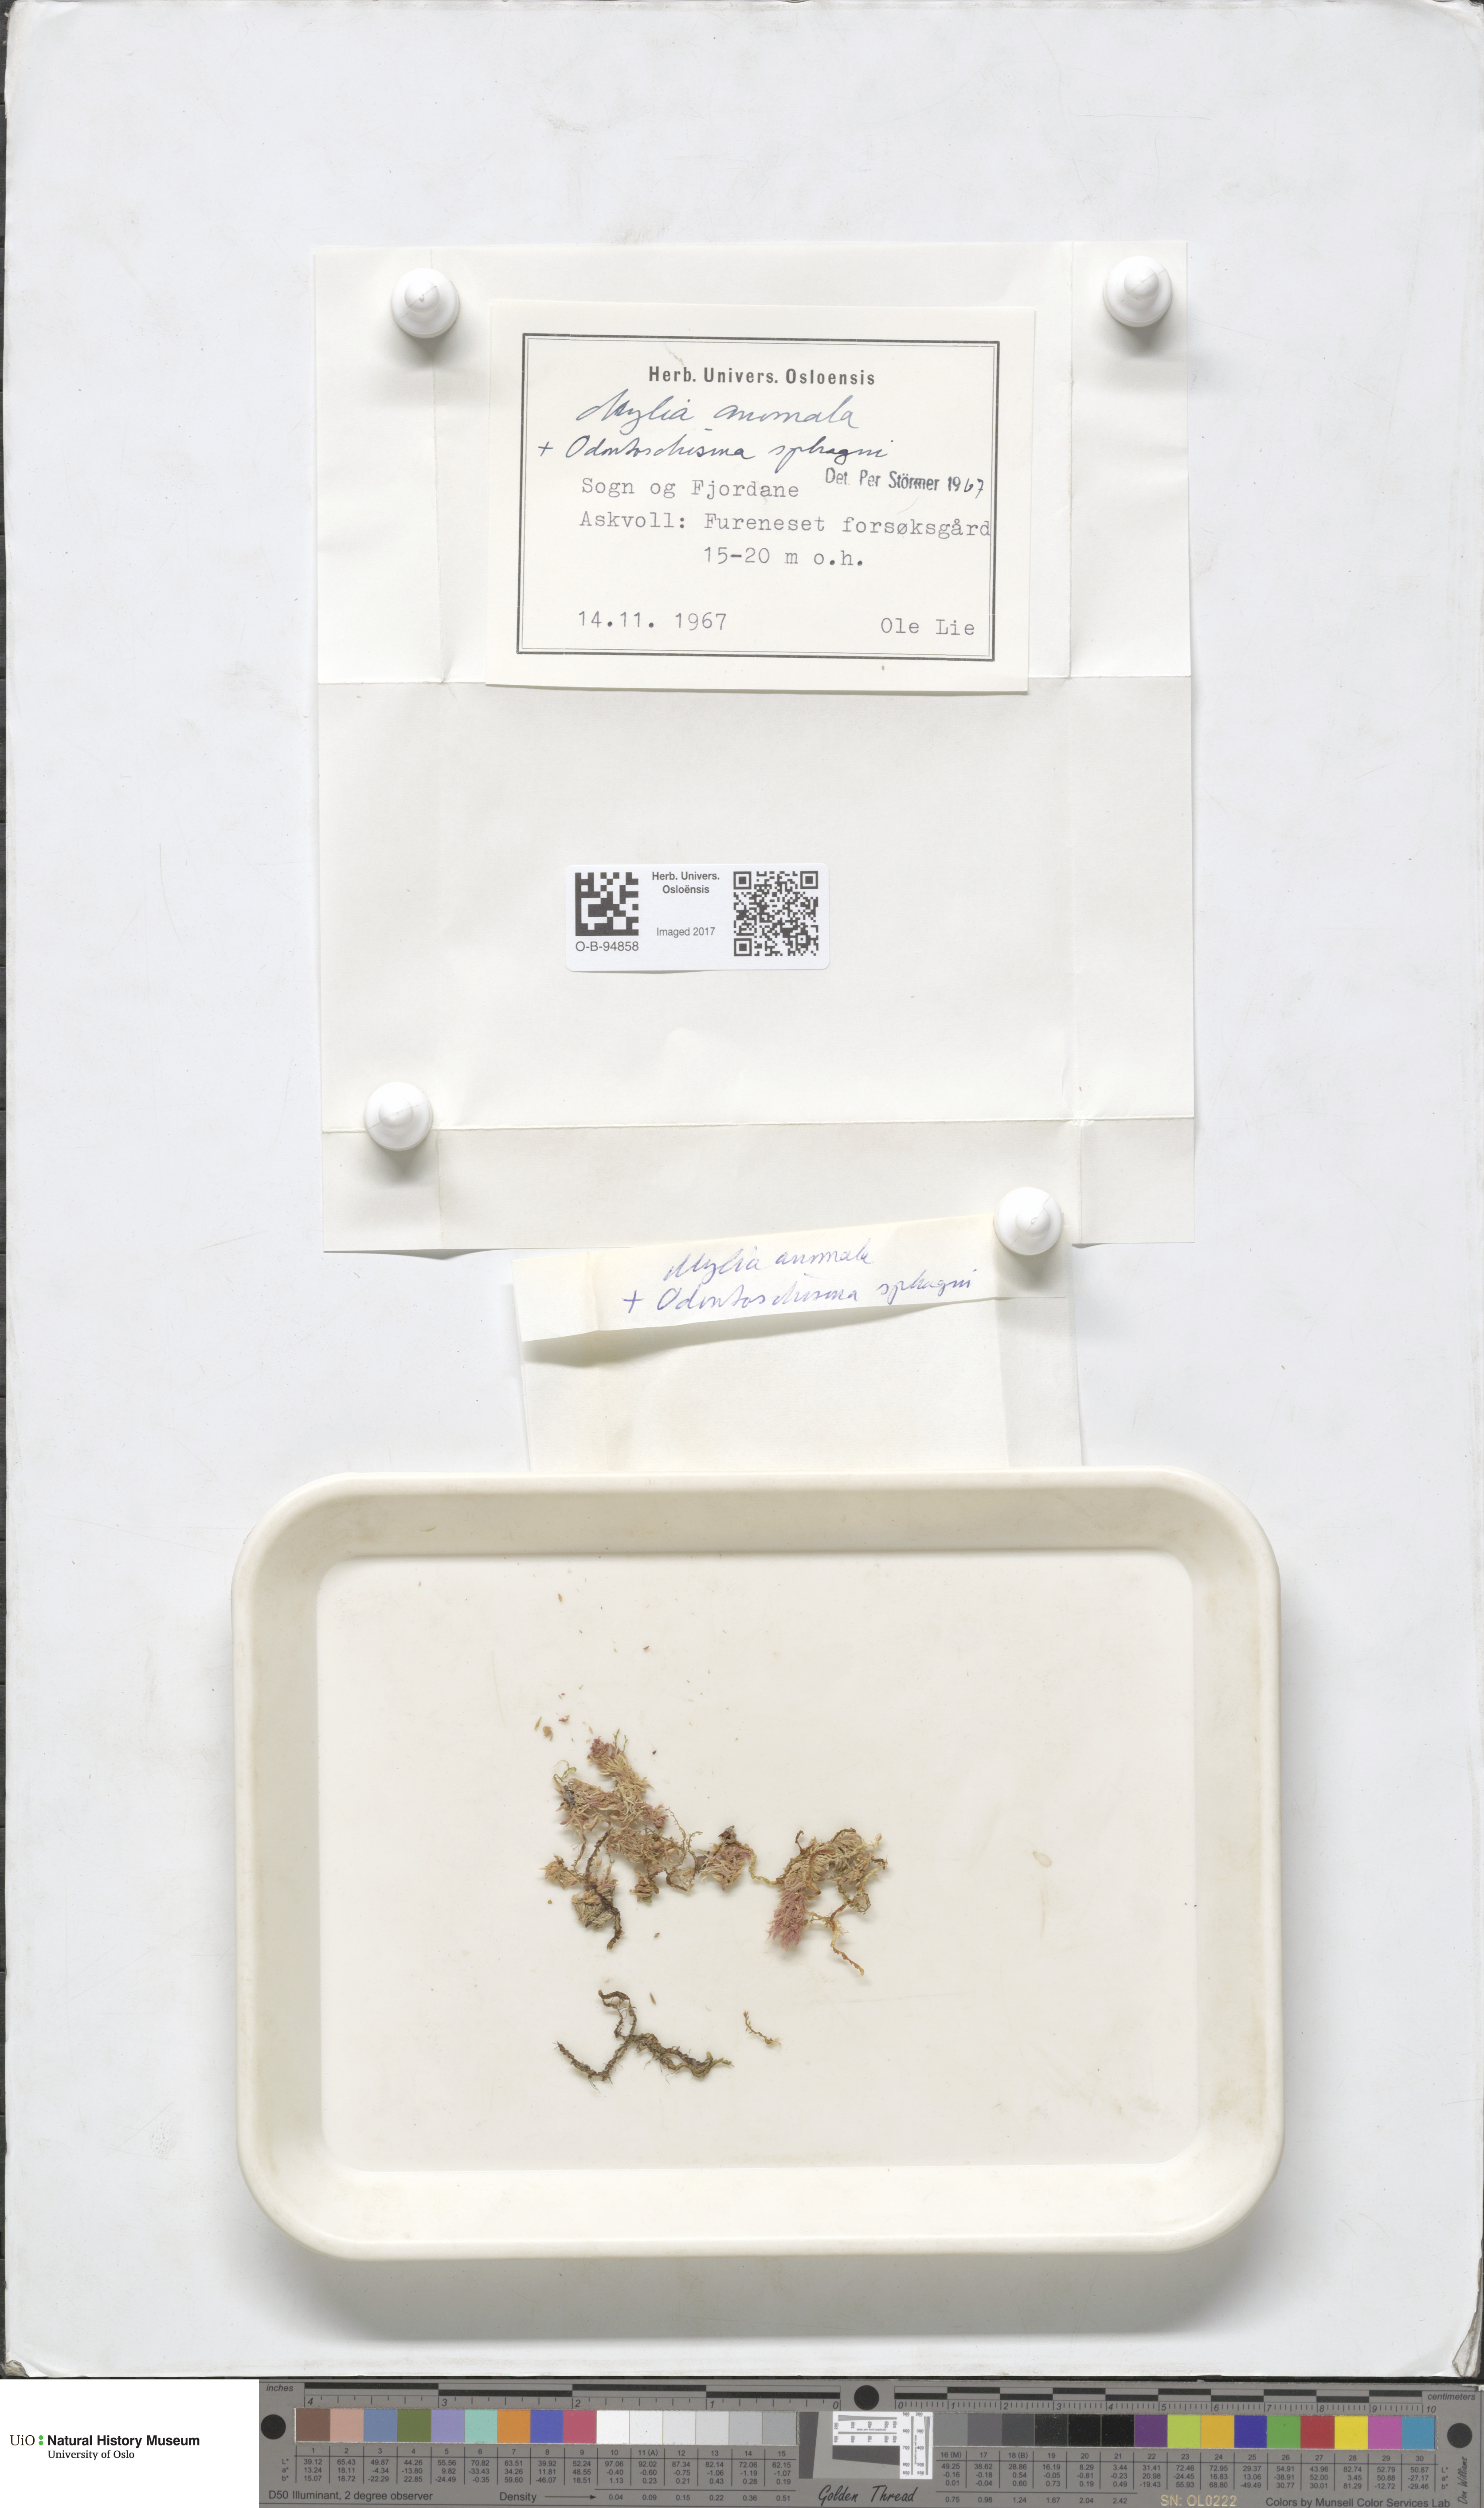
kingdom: Plantae
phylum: Marchantiophyta
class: Jungermanniopsida
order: Jungermanniales
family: Myliaceae
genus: Mylia
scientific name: Mylia taylorii
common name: Taylor s flapwort
